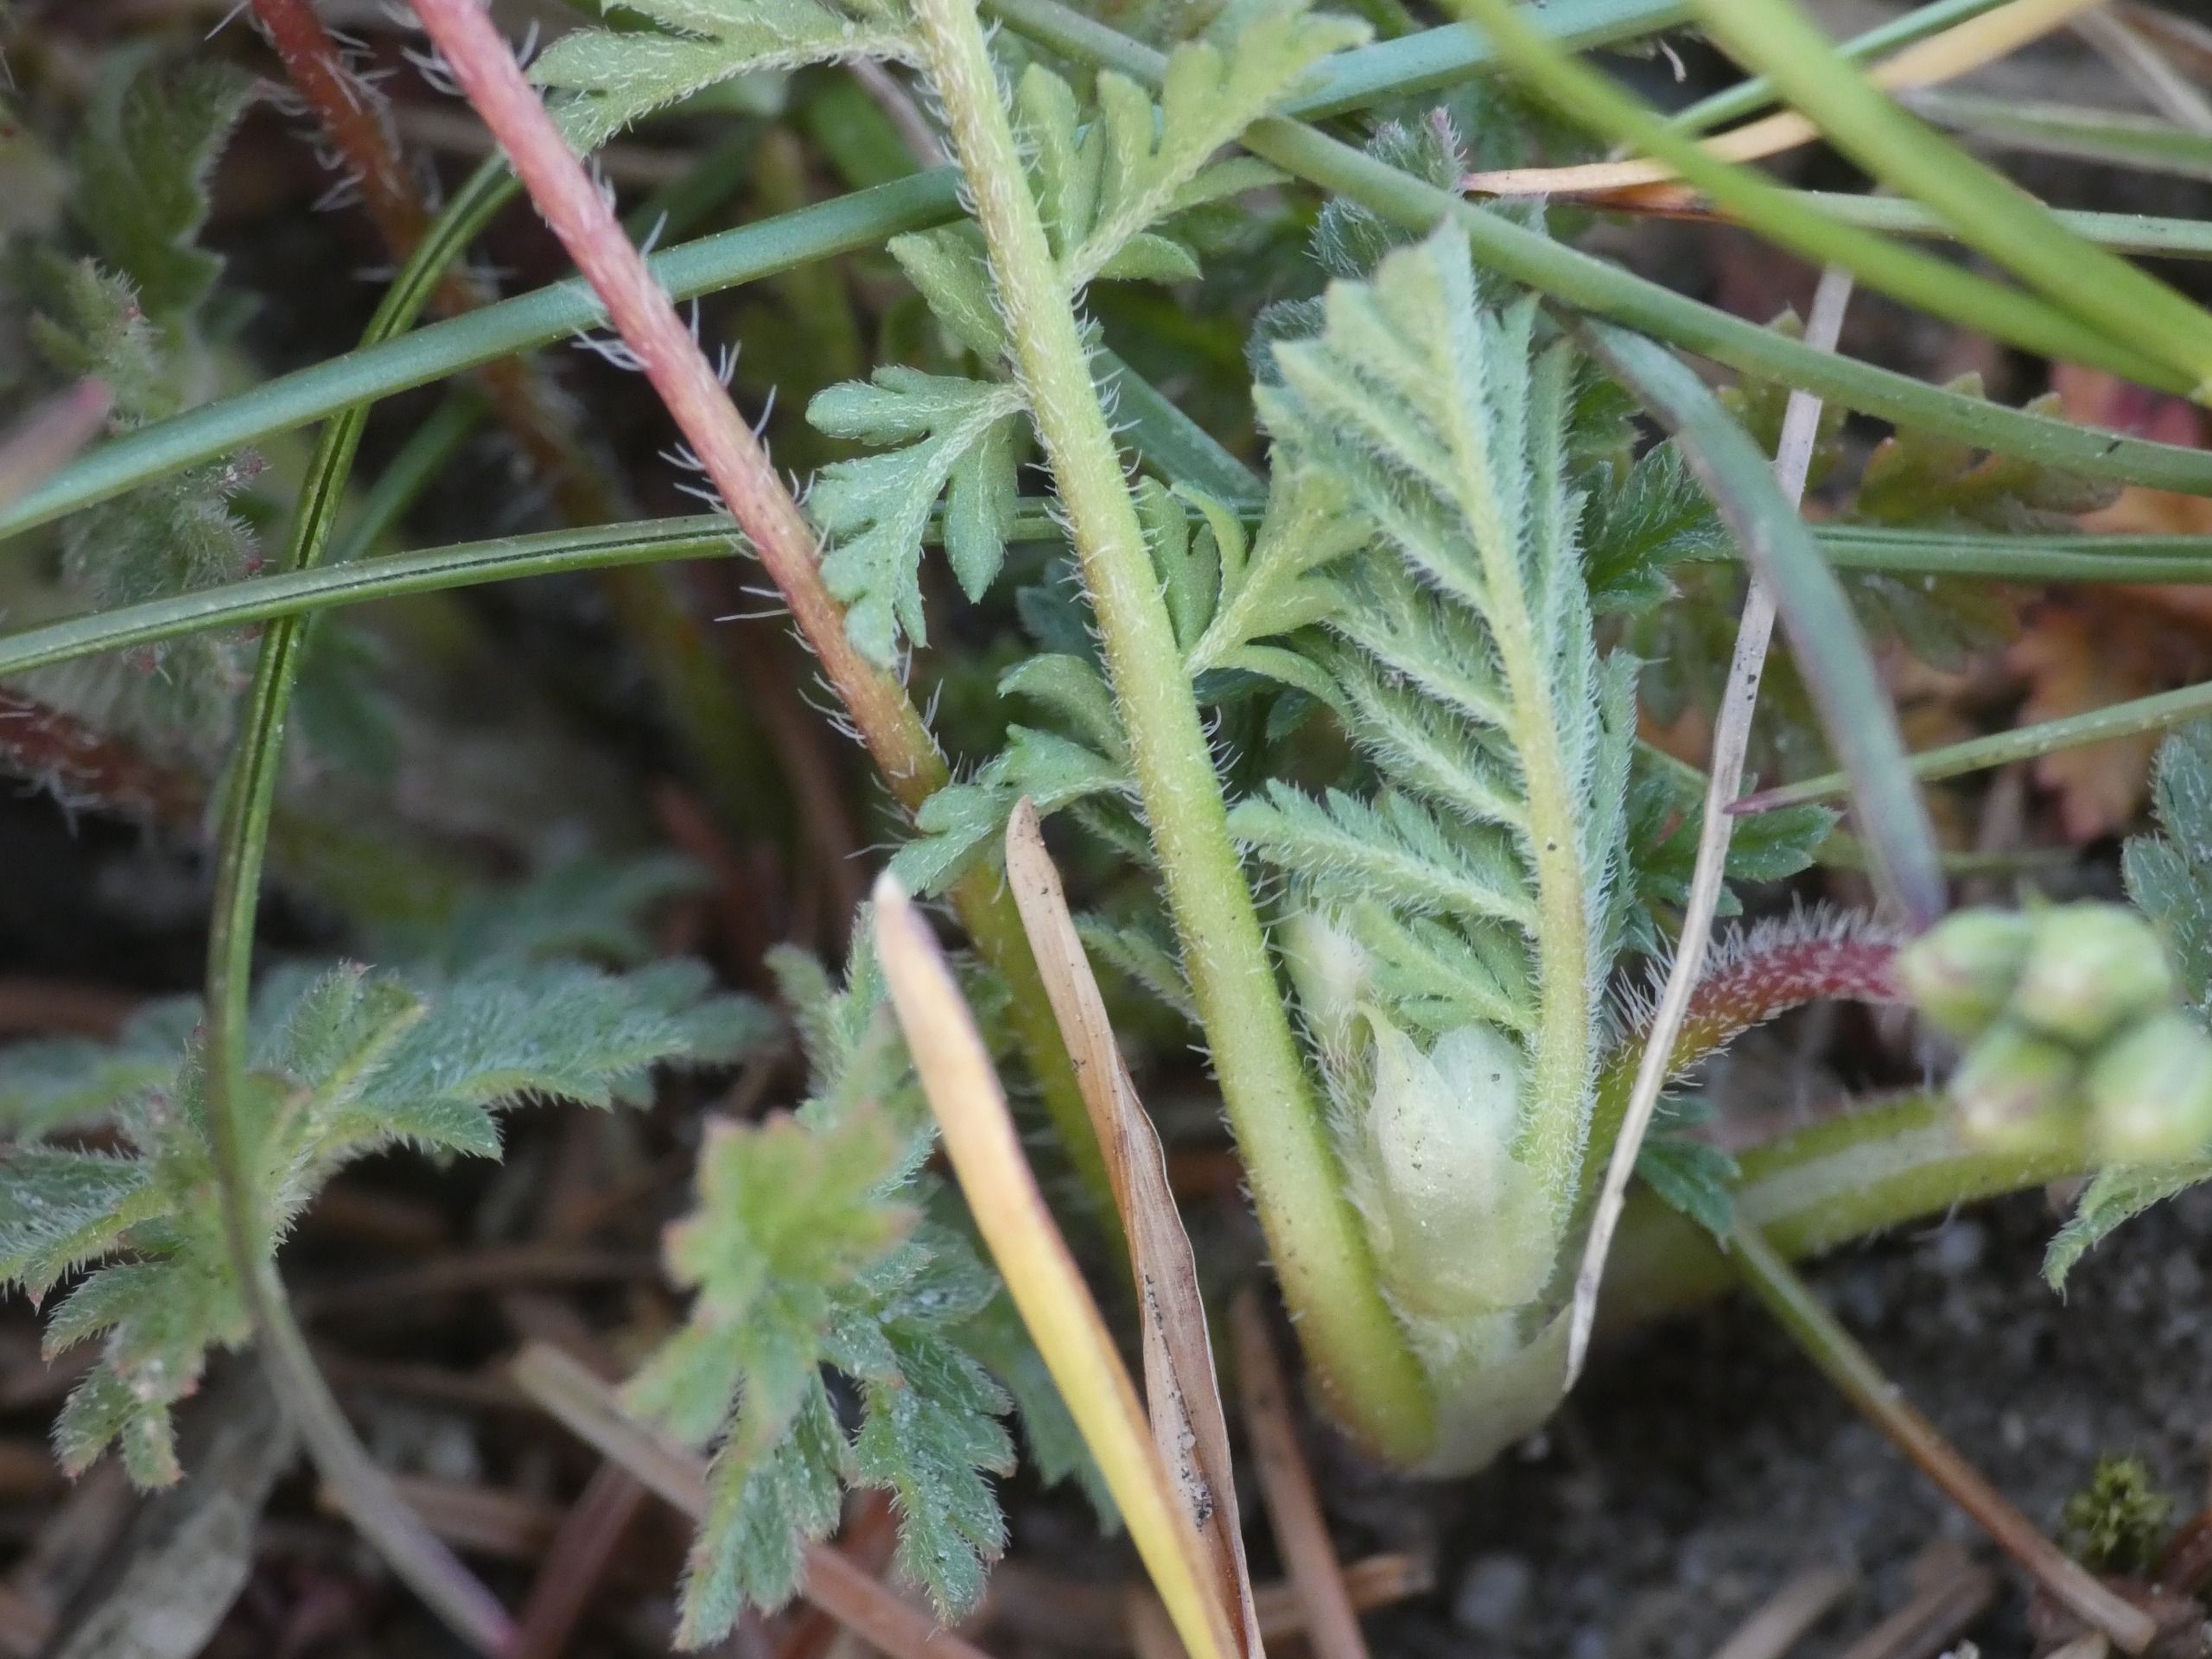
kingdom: Plantae
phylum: Tracheophyta
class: Magnoliopsida
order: Geraniales
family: Geraniaceae
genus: Erodium
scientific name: Erodium cicutarium
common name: Hejrenæb
